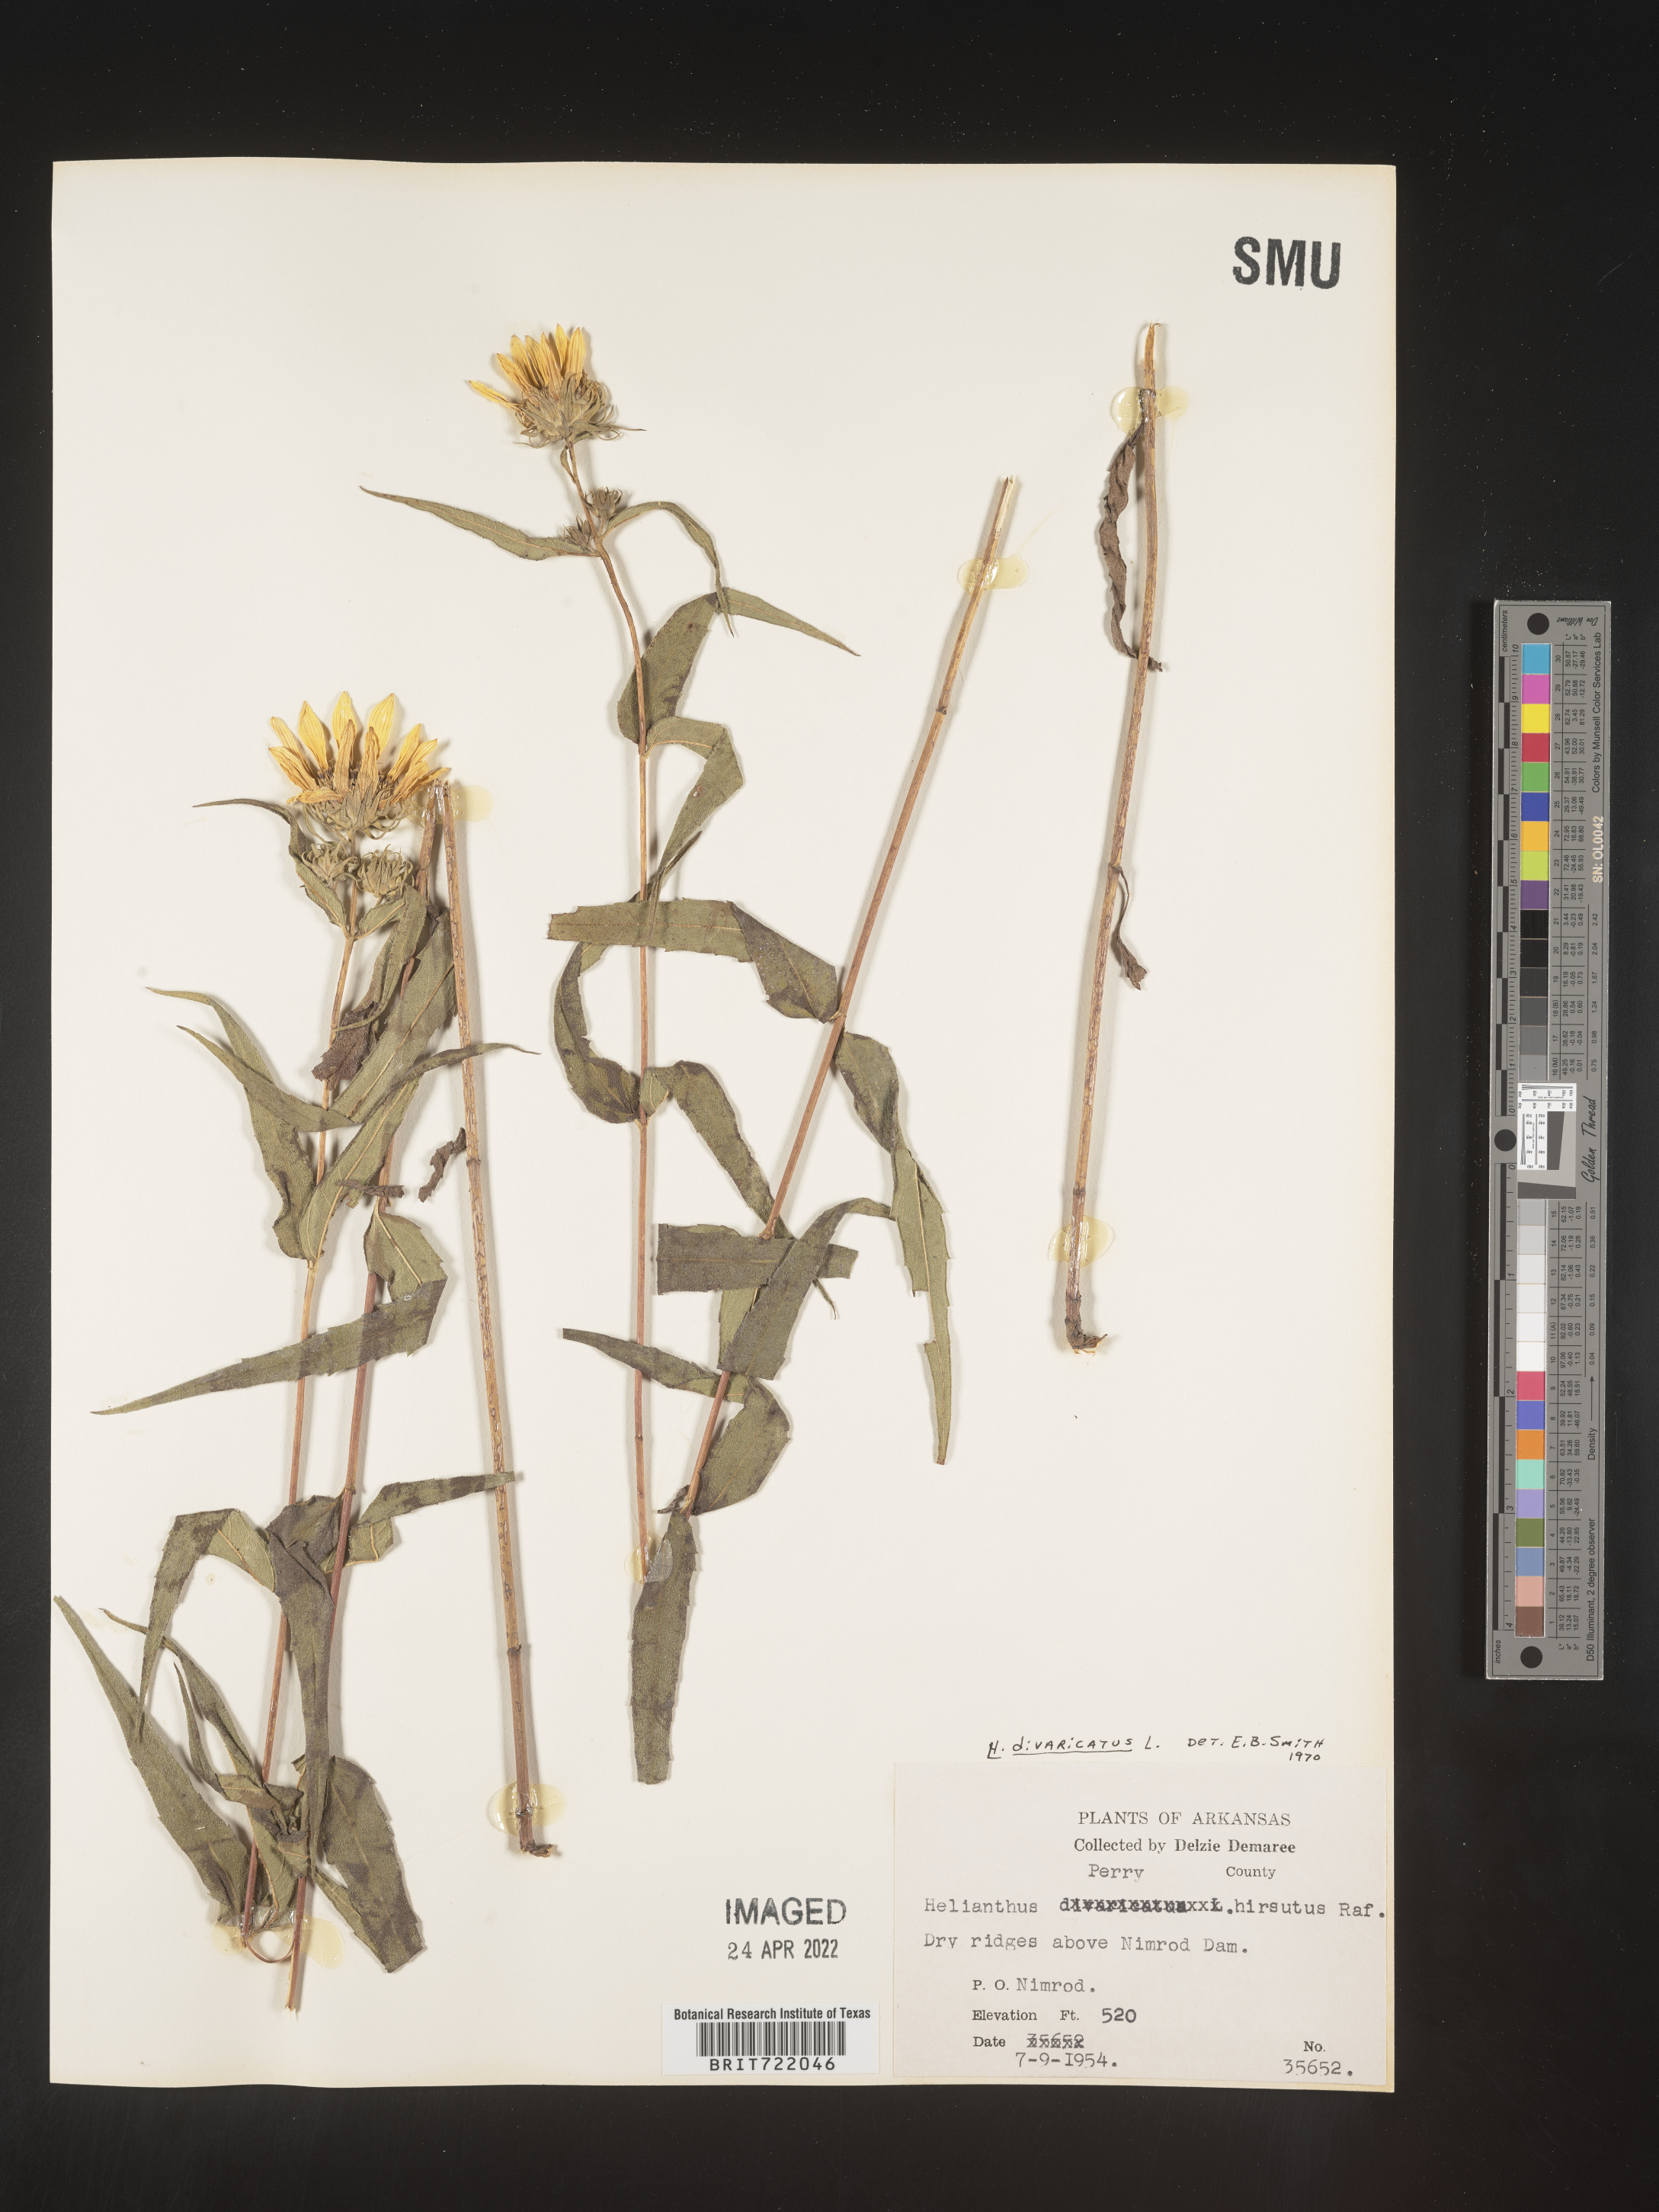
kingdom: Plantae
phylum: Tracheophyta
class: Magnoliopsida
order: Asterales
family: Asteraceae
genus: Helianthus
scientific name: Helianthus divaricatus
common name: Divergent sunflower
